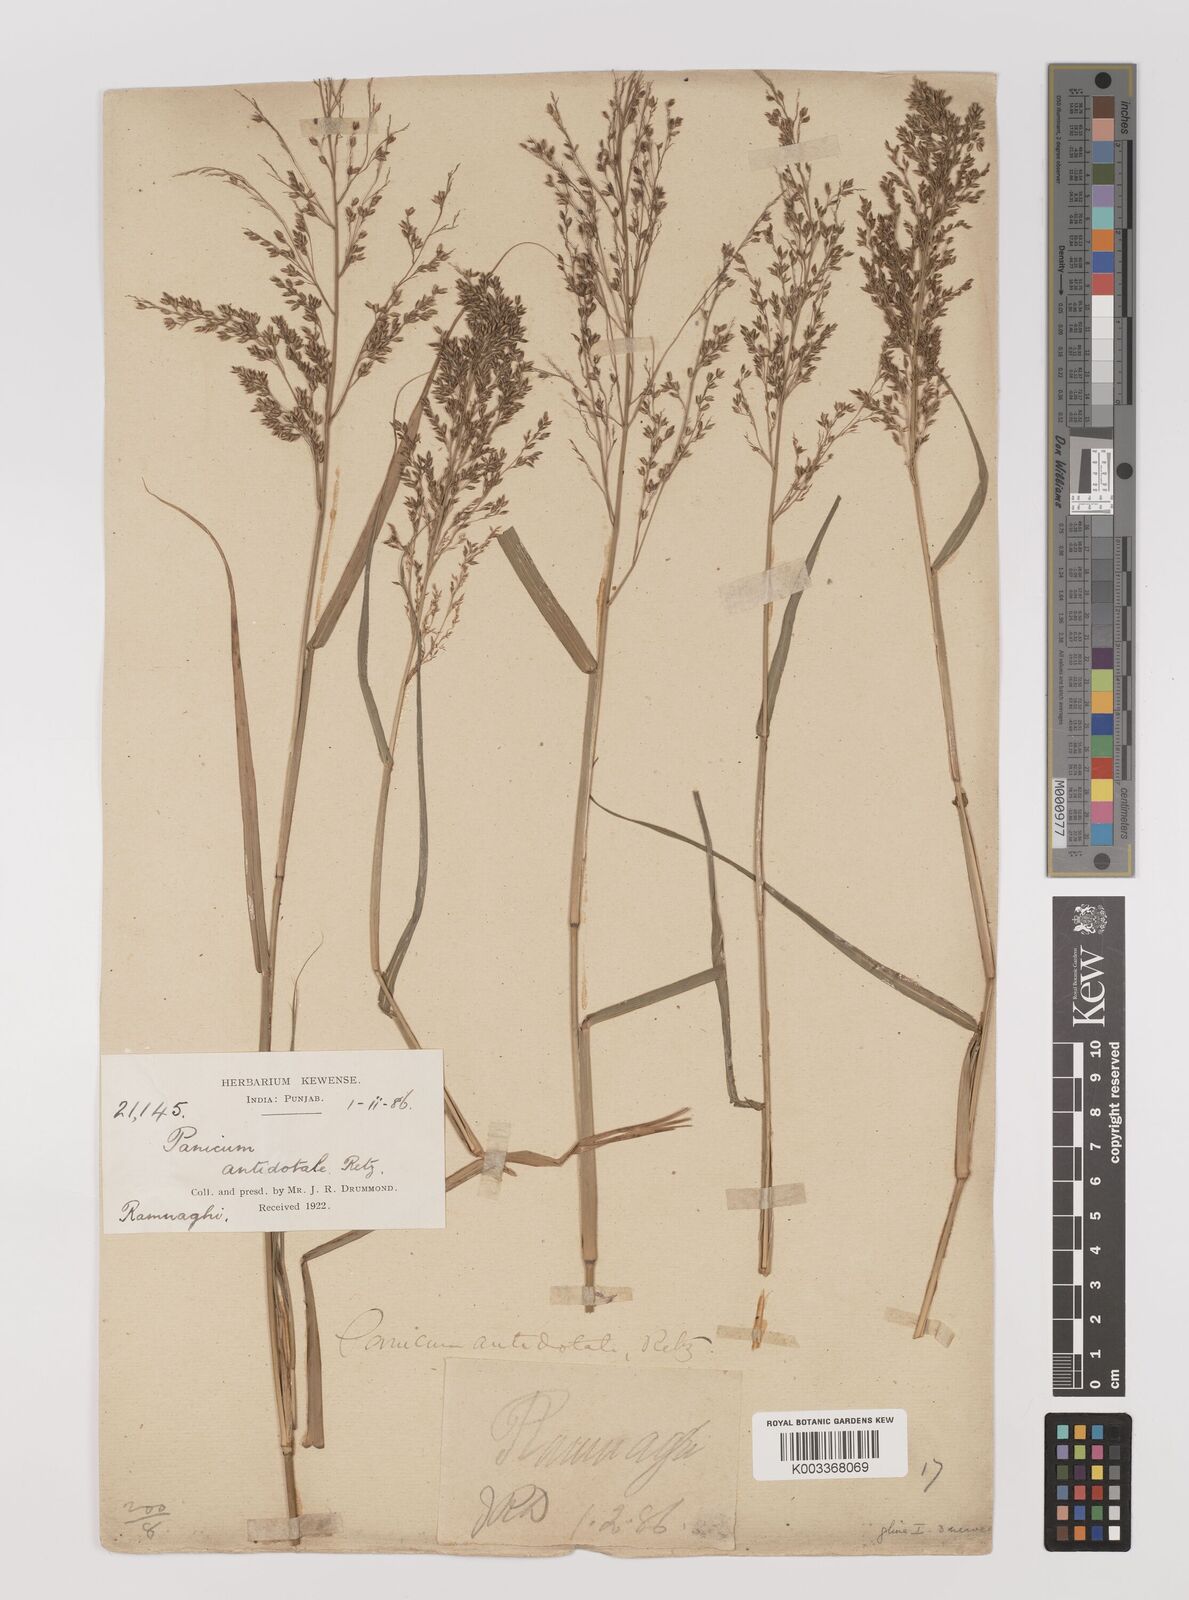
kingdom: Plantae
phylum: Tracheophyta
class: Liliopsida
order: Poales
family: Poaceae
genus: Panicum
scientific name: Panicum antidotale
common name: Blue panicum
